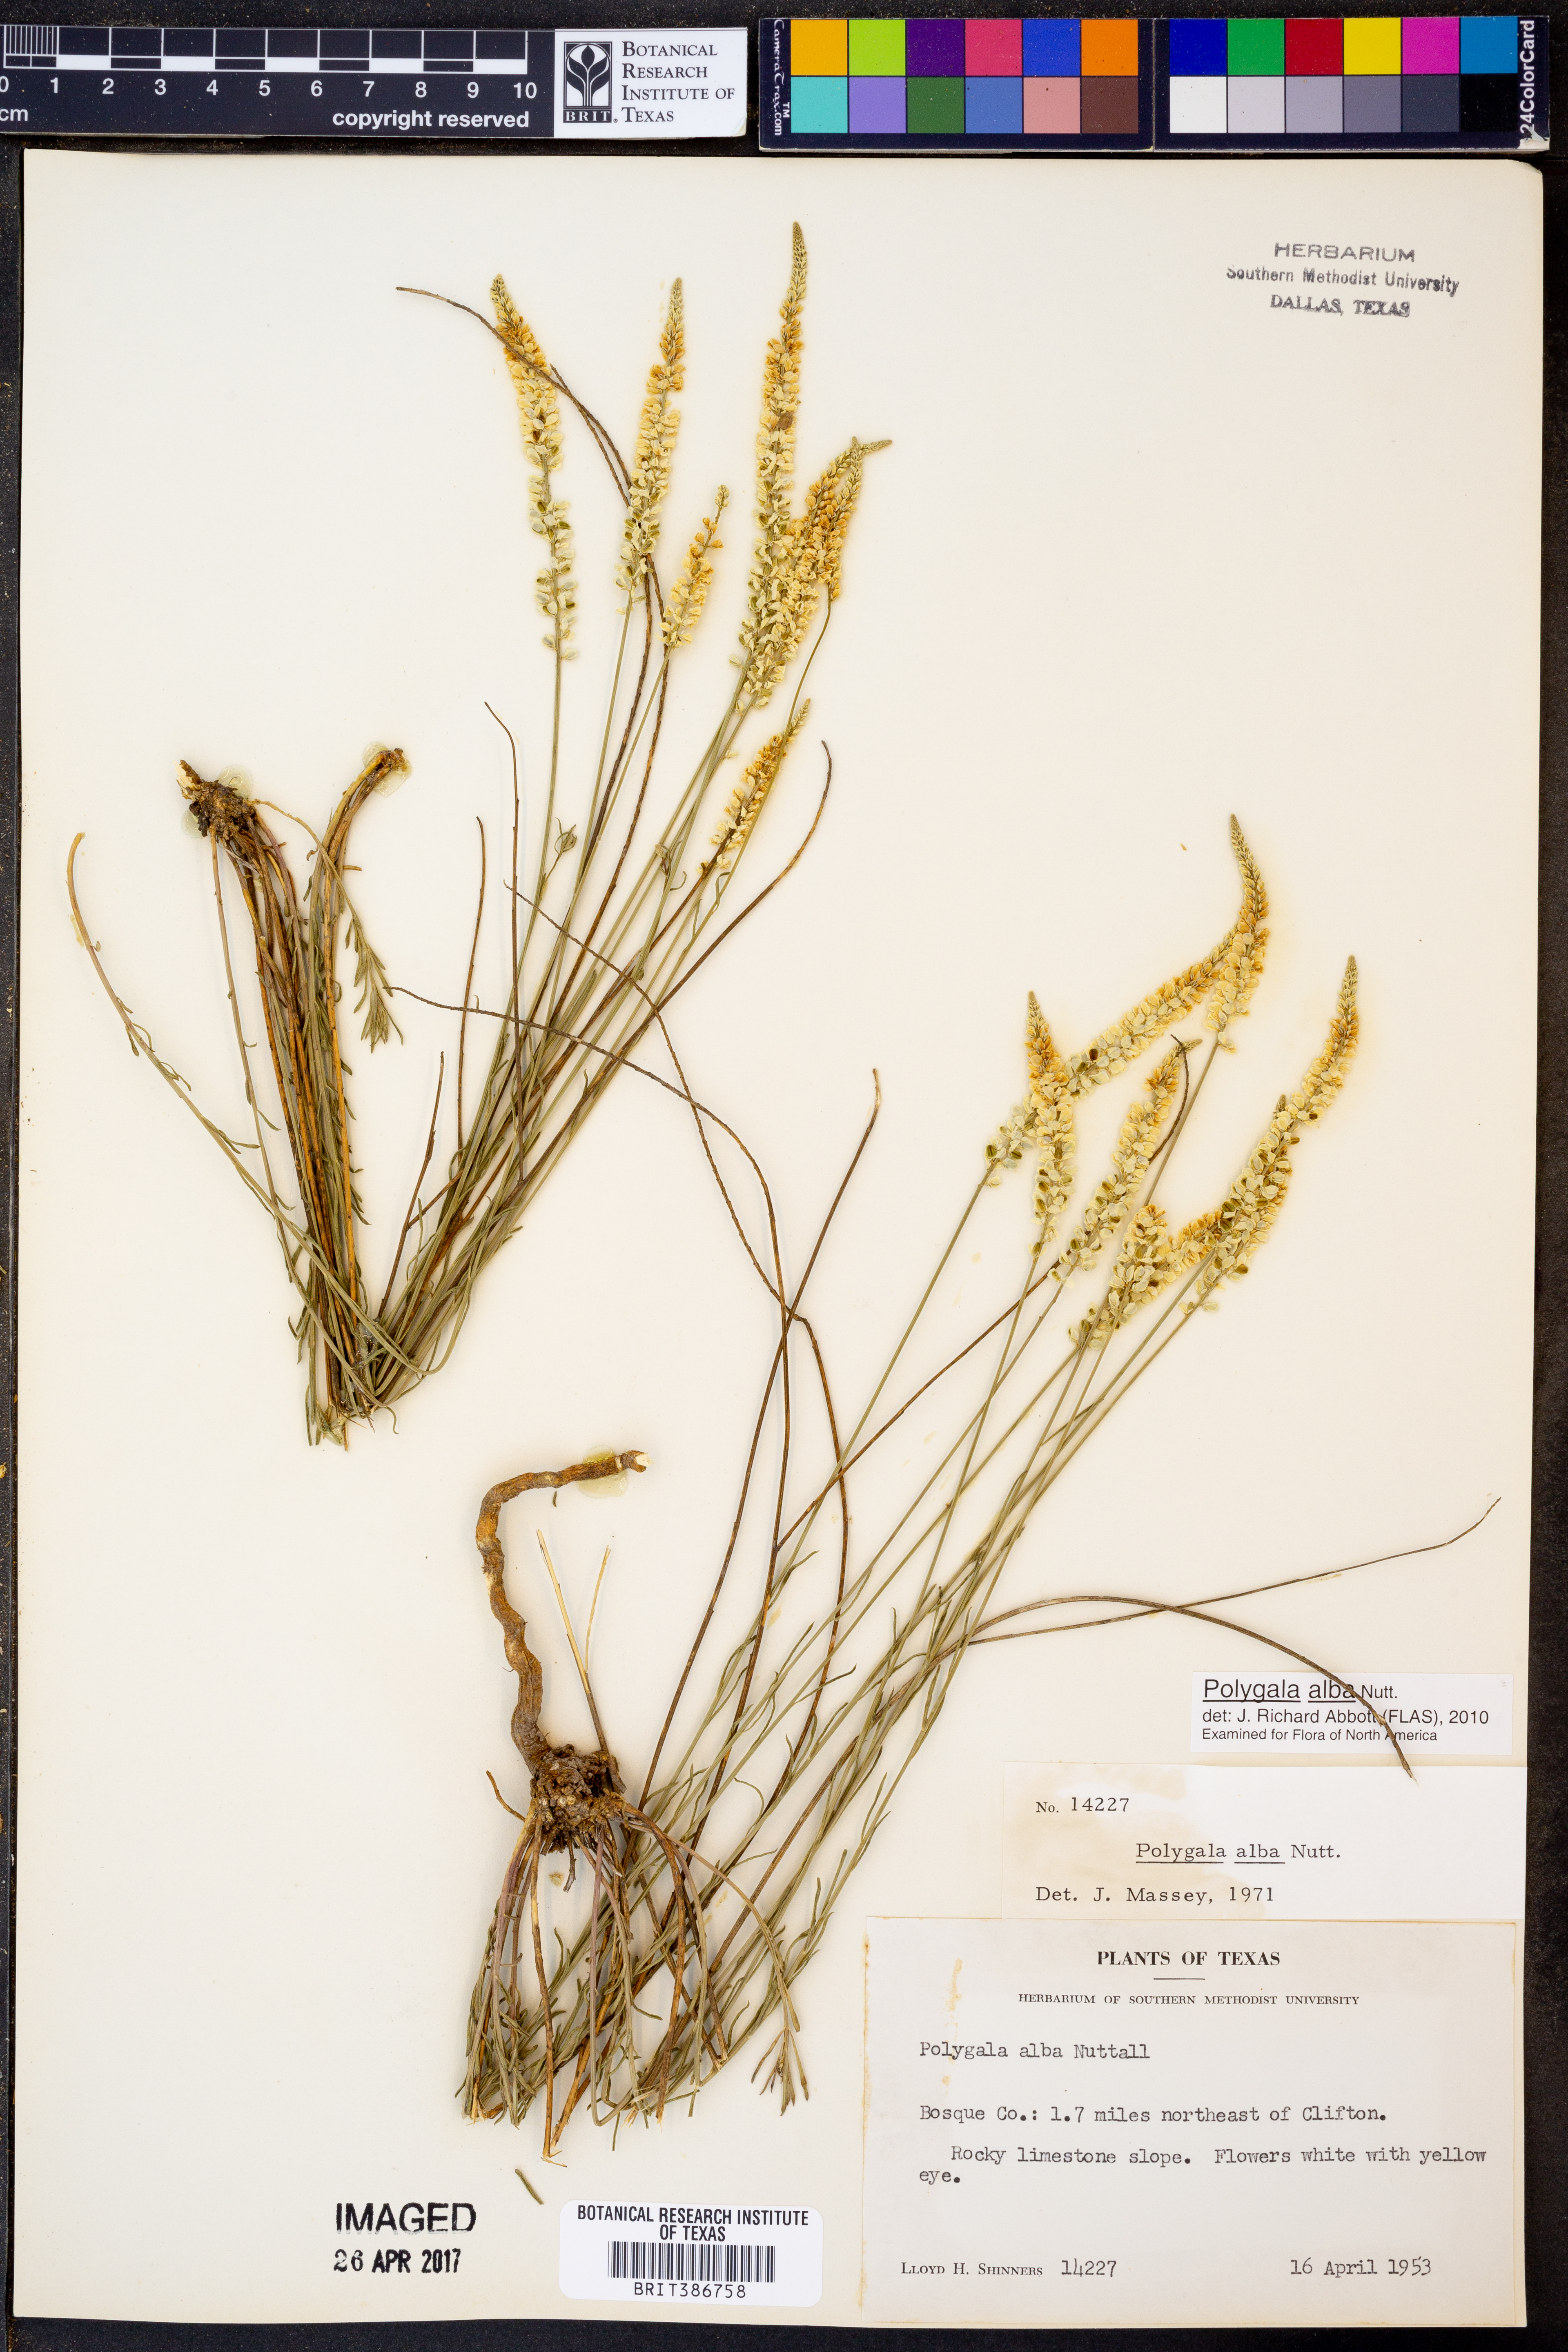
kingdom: Plantae
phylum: Tracheophyta
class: Magnoliopsida
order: Fabales
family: Polygalaceae
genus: Polygala
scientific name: Polygala alba
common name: White milkwort
